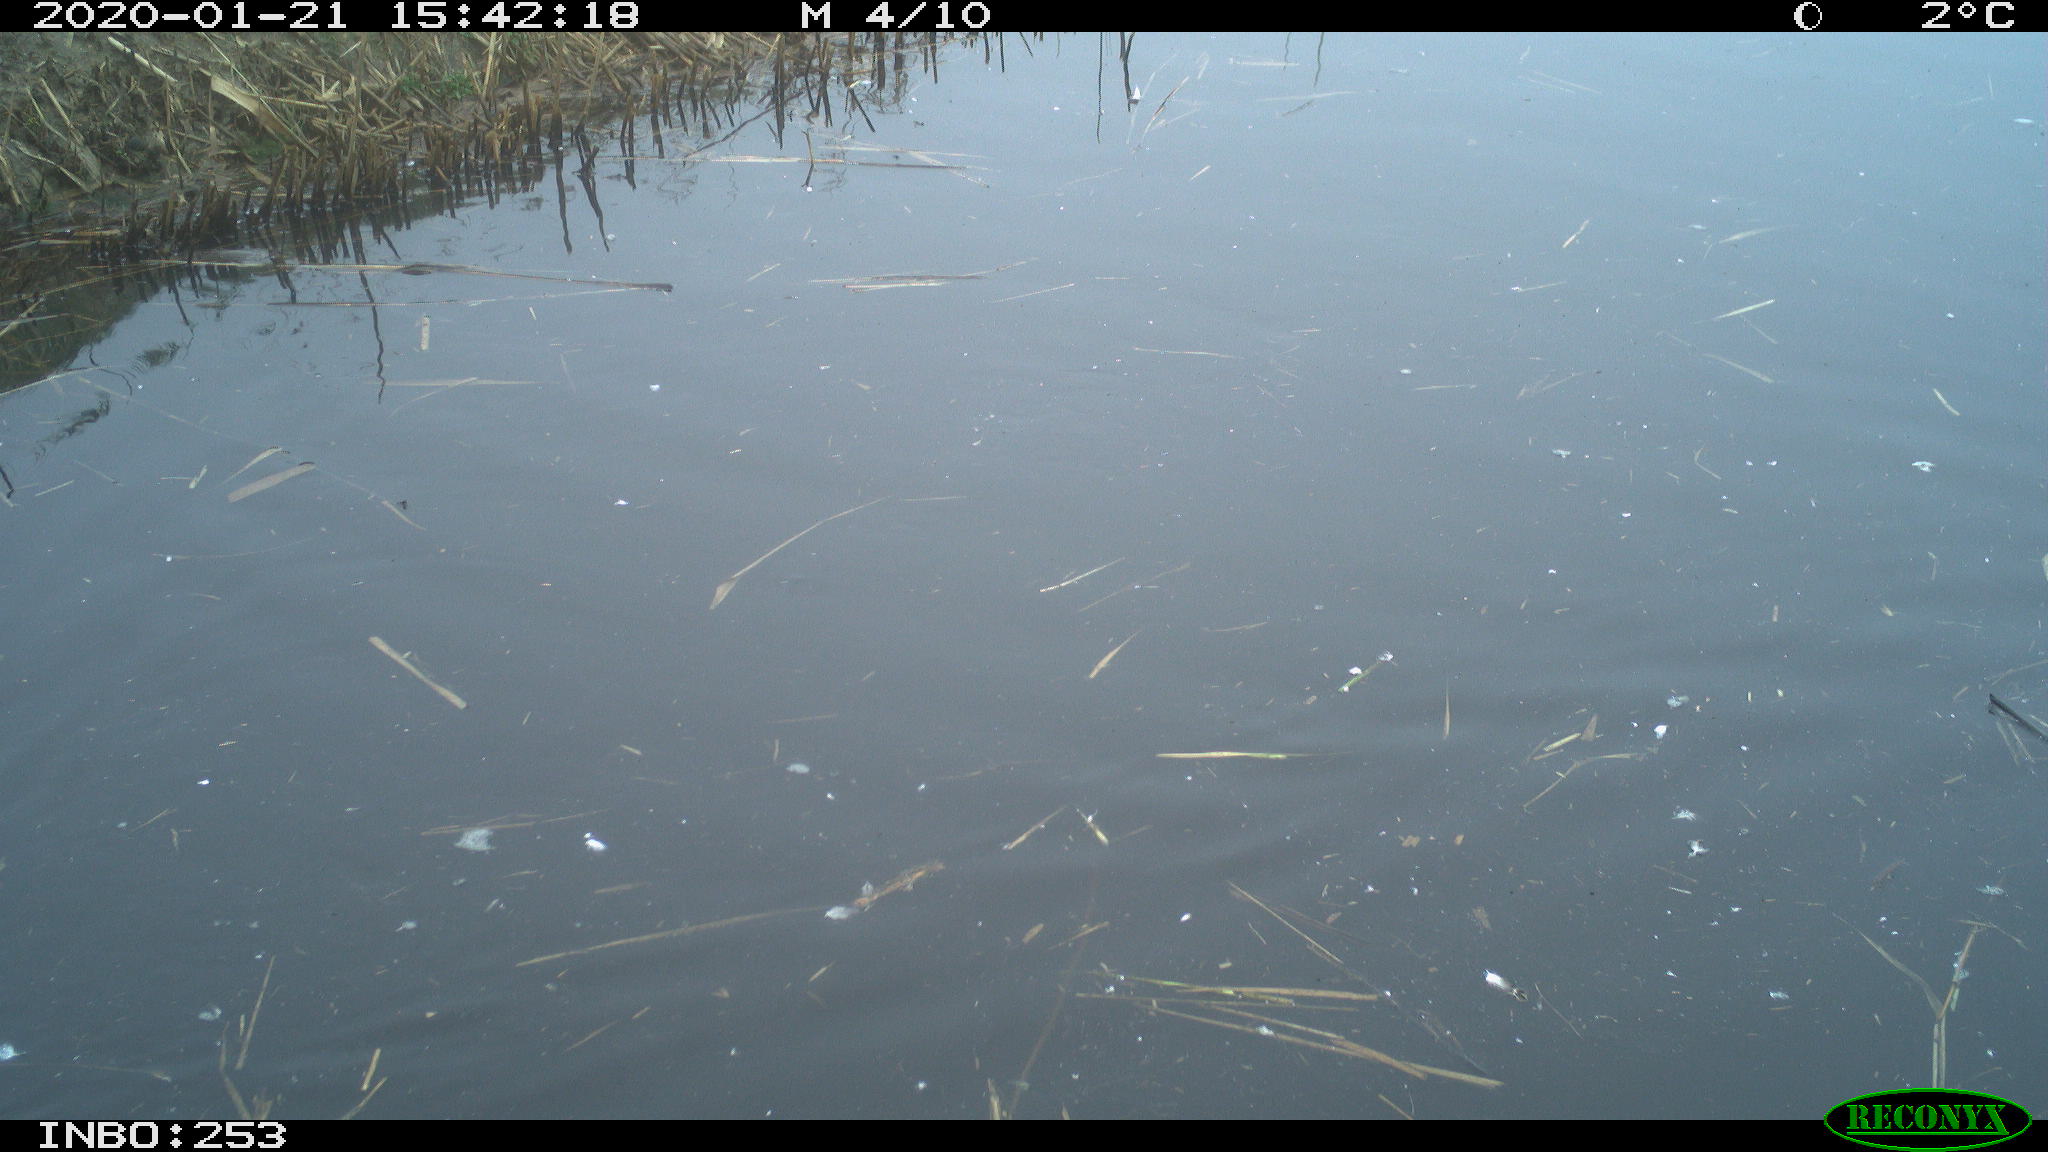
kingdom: Animalia
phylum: Chordata
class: Aves
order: Gruiformes
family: Rallidae
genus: Fulica
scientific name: Fulica atra
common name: Eurasian coot
